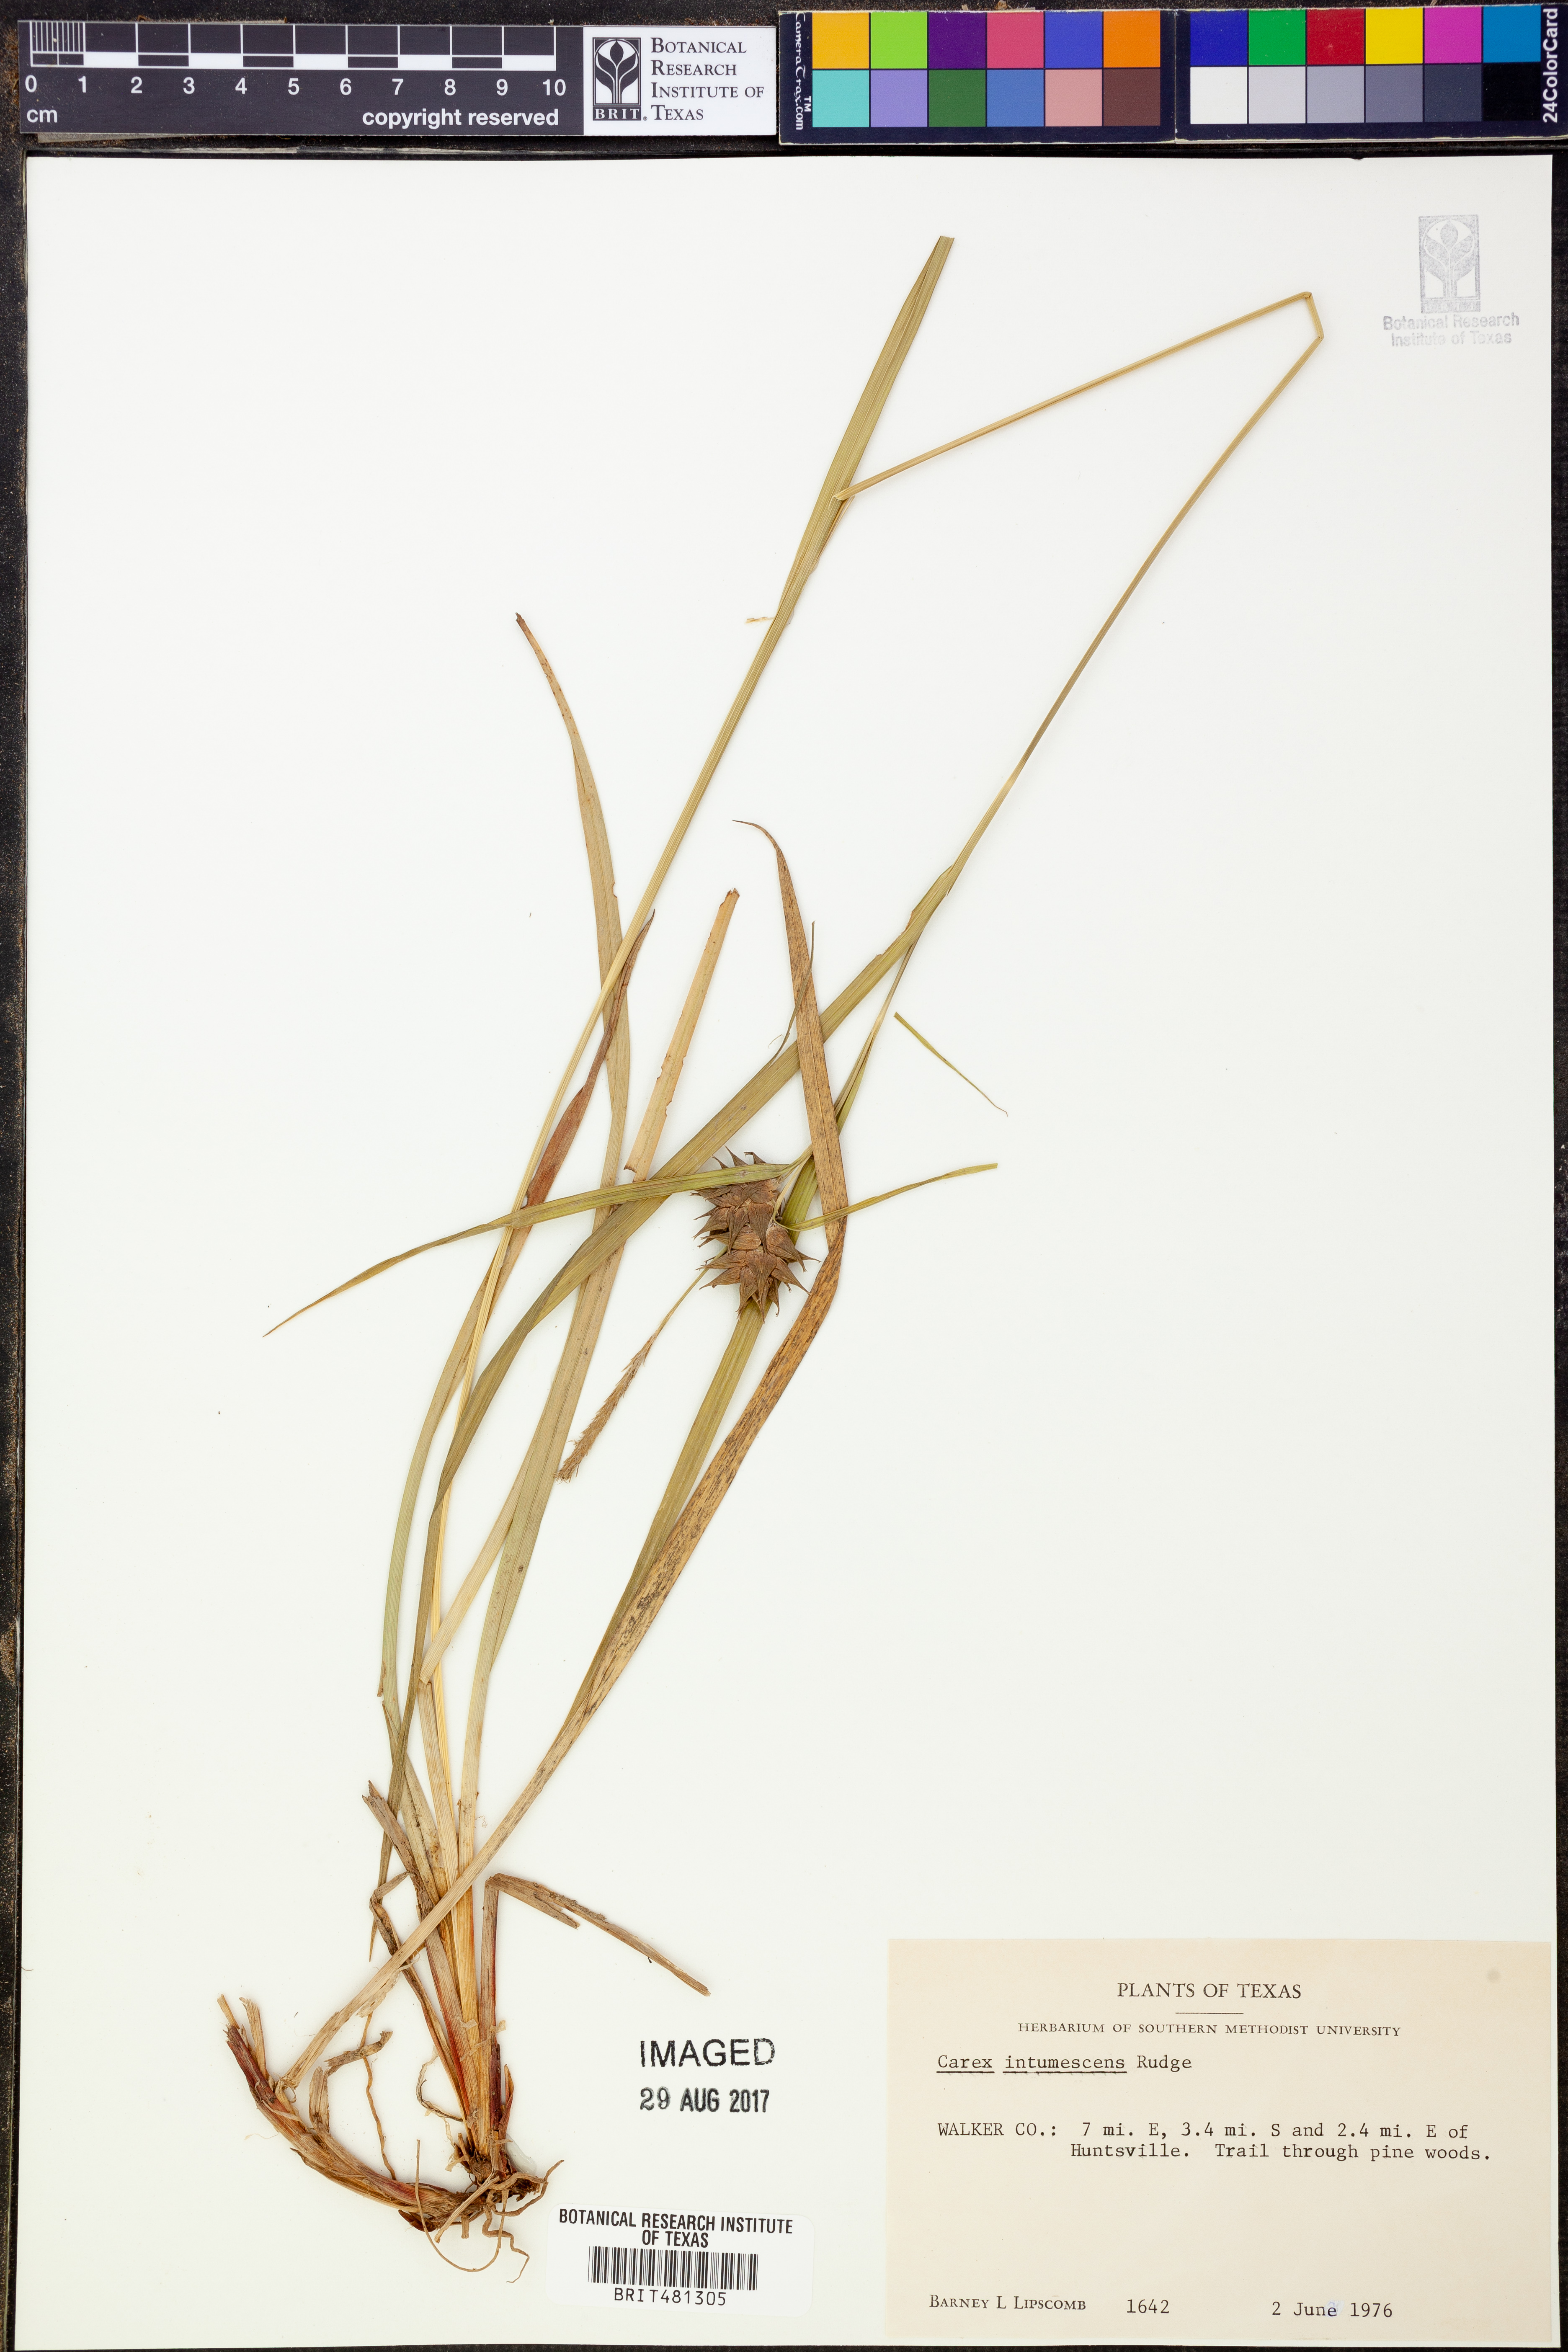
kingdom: Plantae
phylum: Tracheophyta
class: Liliopsida
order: Poales
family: Cyperaceae
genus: Carex
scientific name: Carex intumescens
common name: Greater bladder sedge
